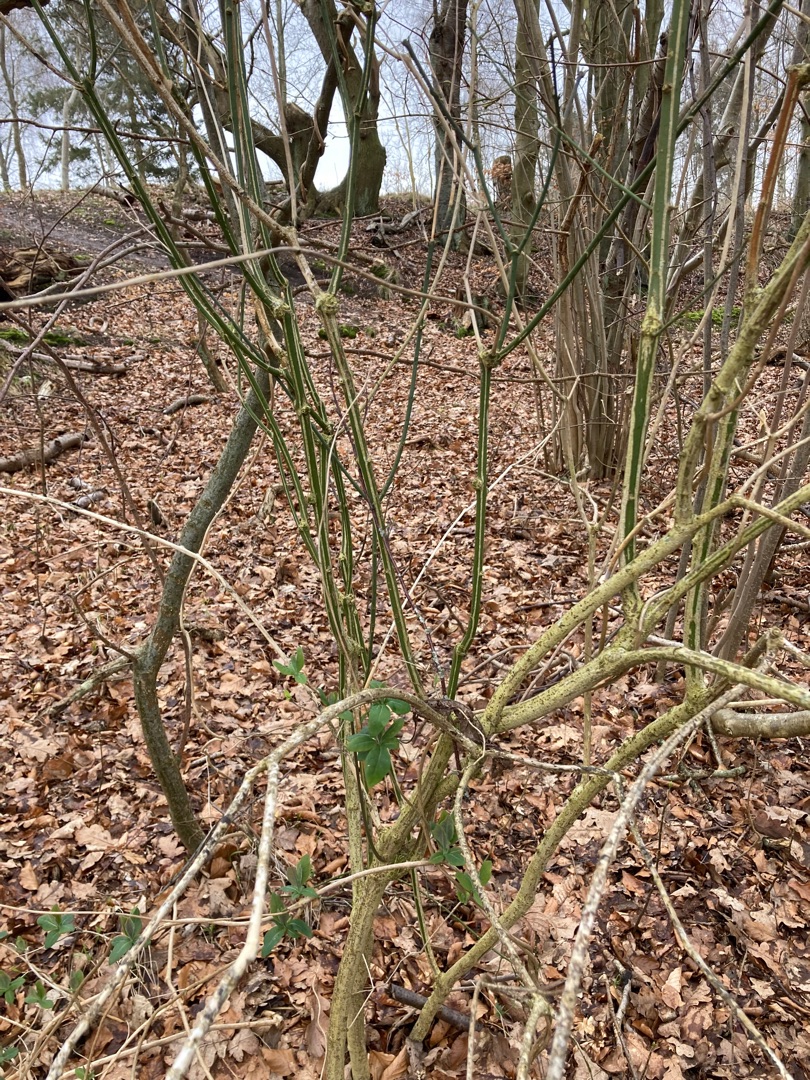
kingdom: Plantae
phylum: Tracheophyta
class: Magnoliopsida
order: Celastrales
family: Celastraceae
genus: Euonymus
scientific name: Euonymus europaeus
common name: Benved
